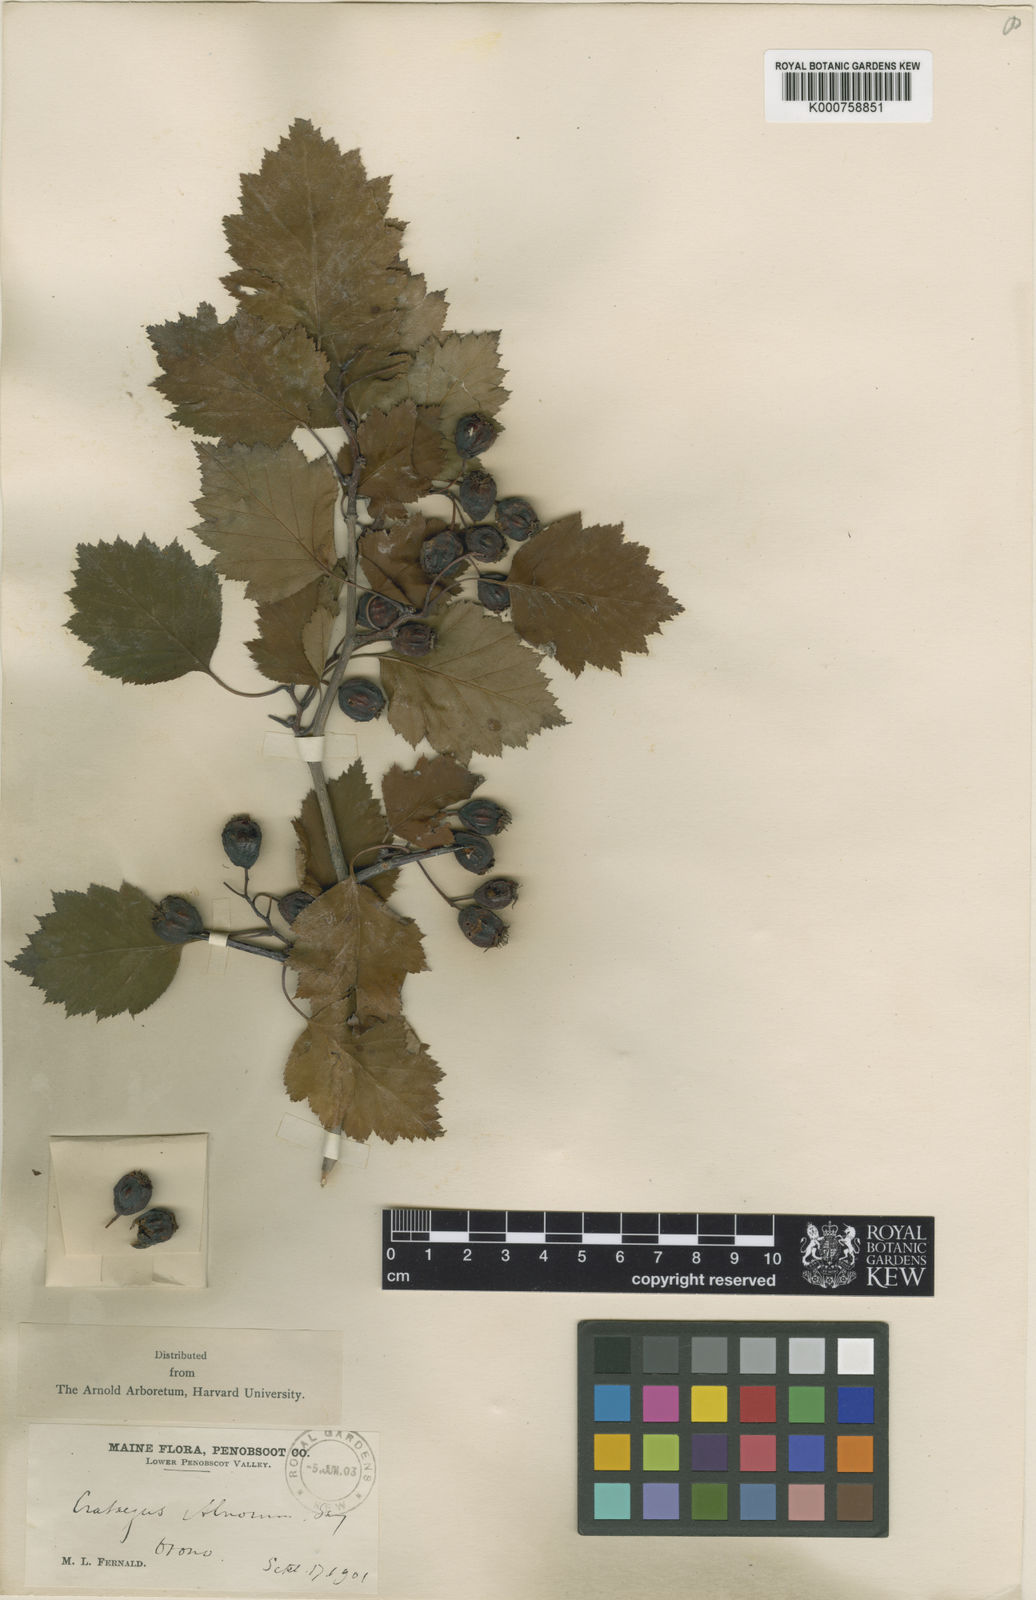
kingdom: Plantae
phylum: Tracheophyta
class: Magnoliopsida
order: Rosales
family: Rosaceae
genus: Crataegus
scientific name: Crataegus schuettei
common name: Schuette's hawthorn
